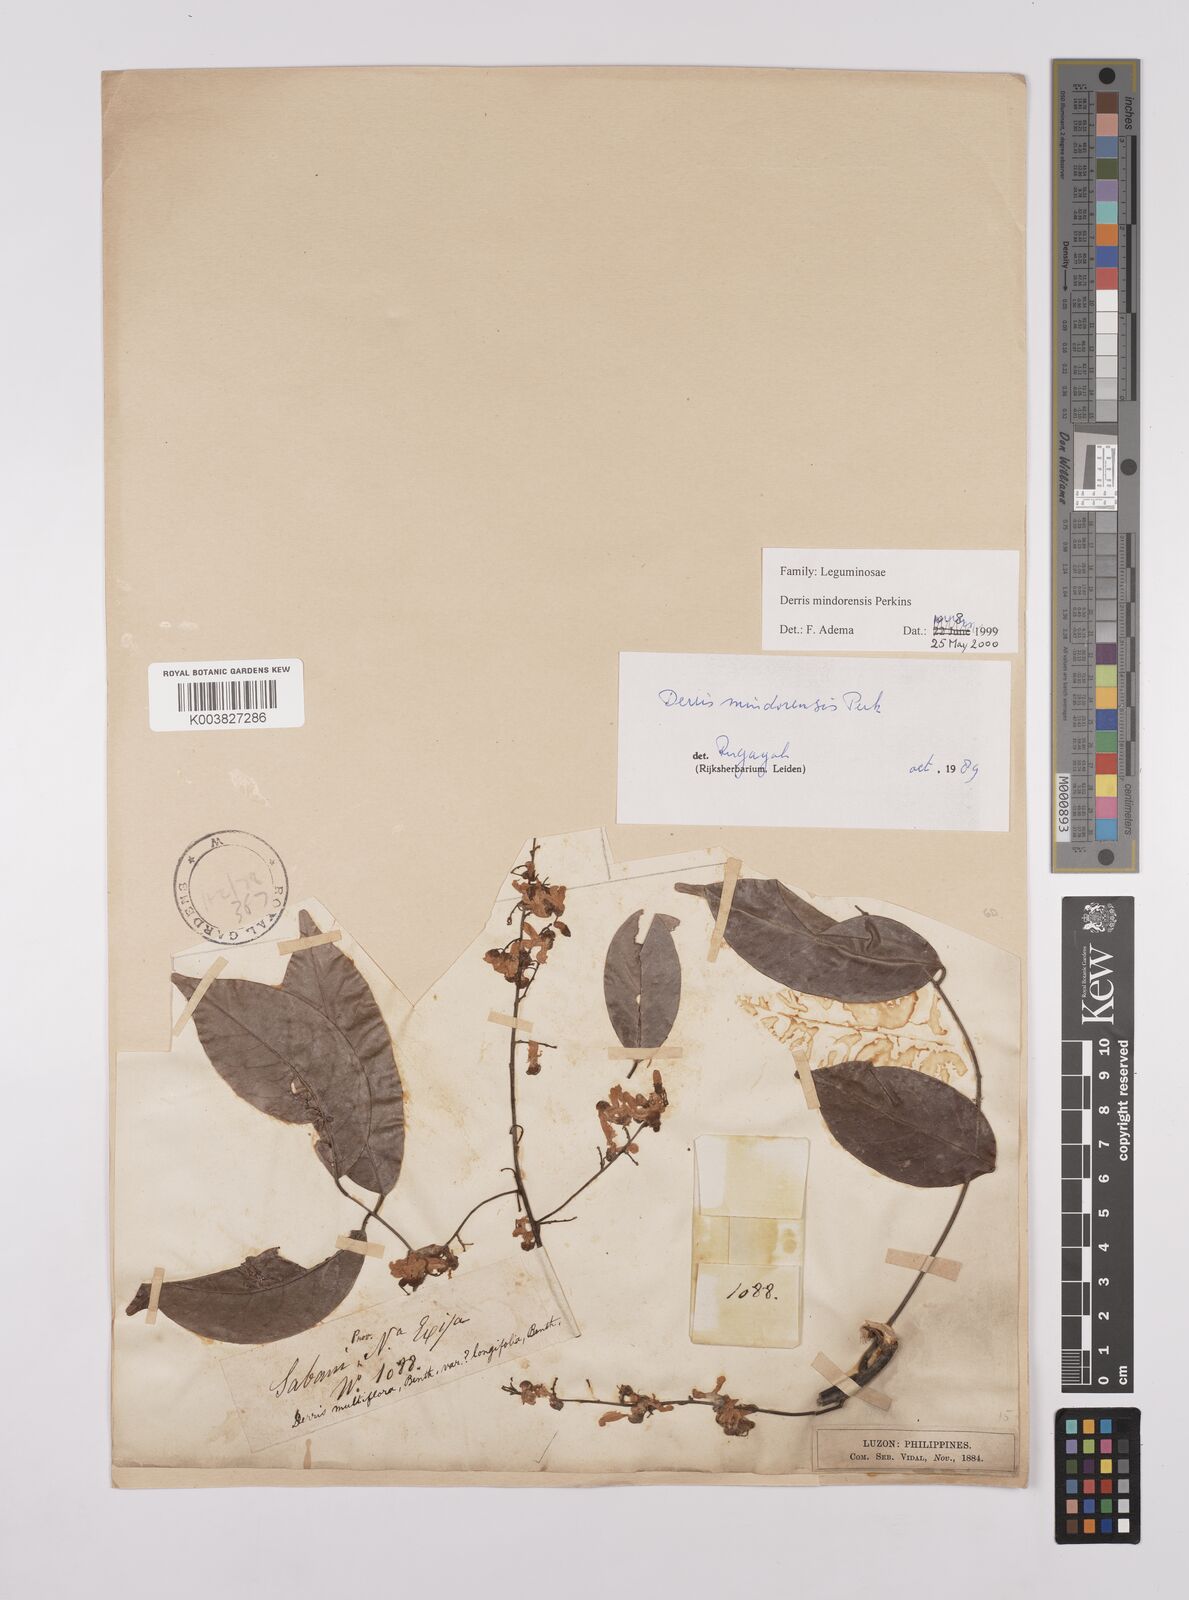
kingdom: Plantae
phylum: Tracheophyta
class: Magnoliopsida
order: Fabales
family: Fabaceae
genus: Derris
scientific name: Derris pubipetala
